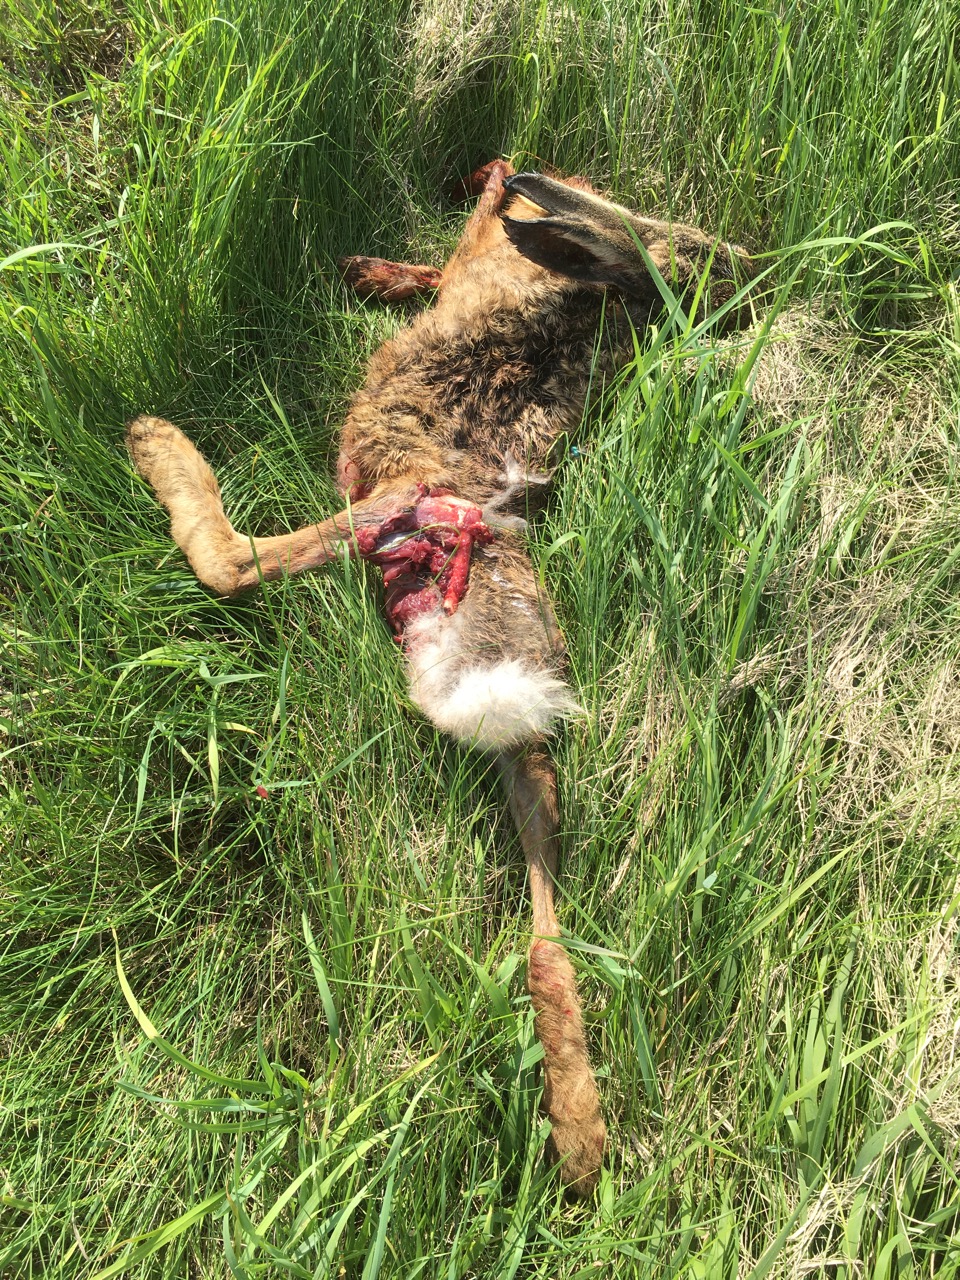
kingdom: Animalia
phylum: Chordata
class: Mammalia
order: Lagomorpha
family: Leporidae
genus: Lepus
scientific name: Lepus europaeus
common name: European hare
